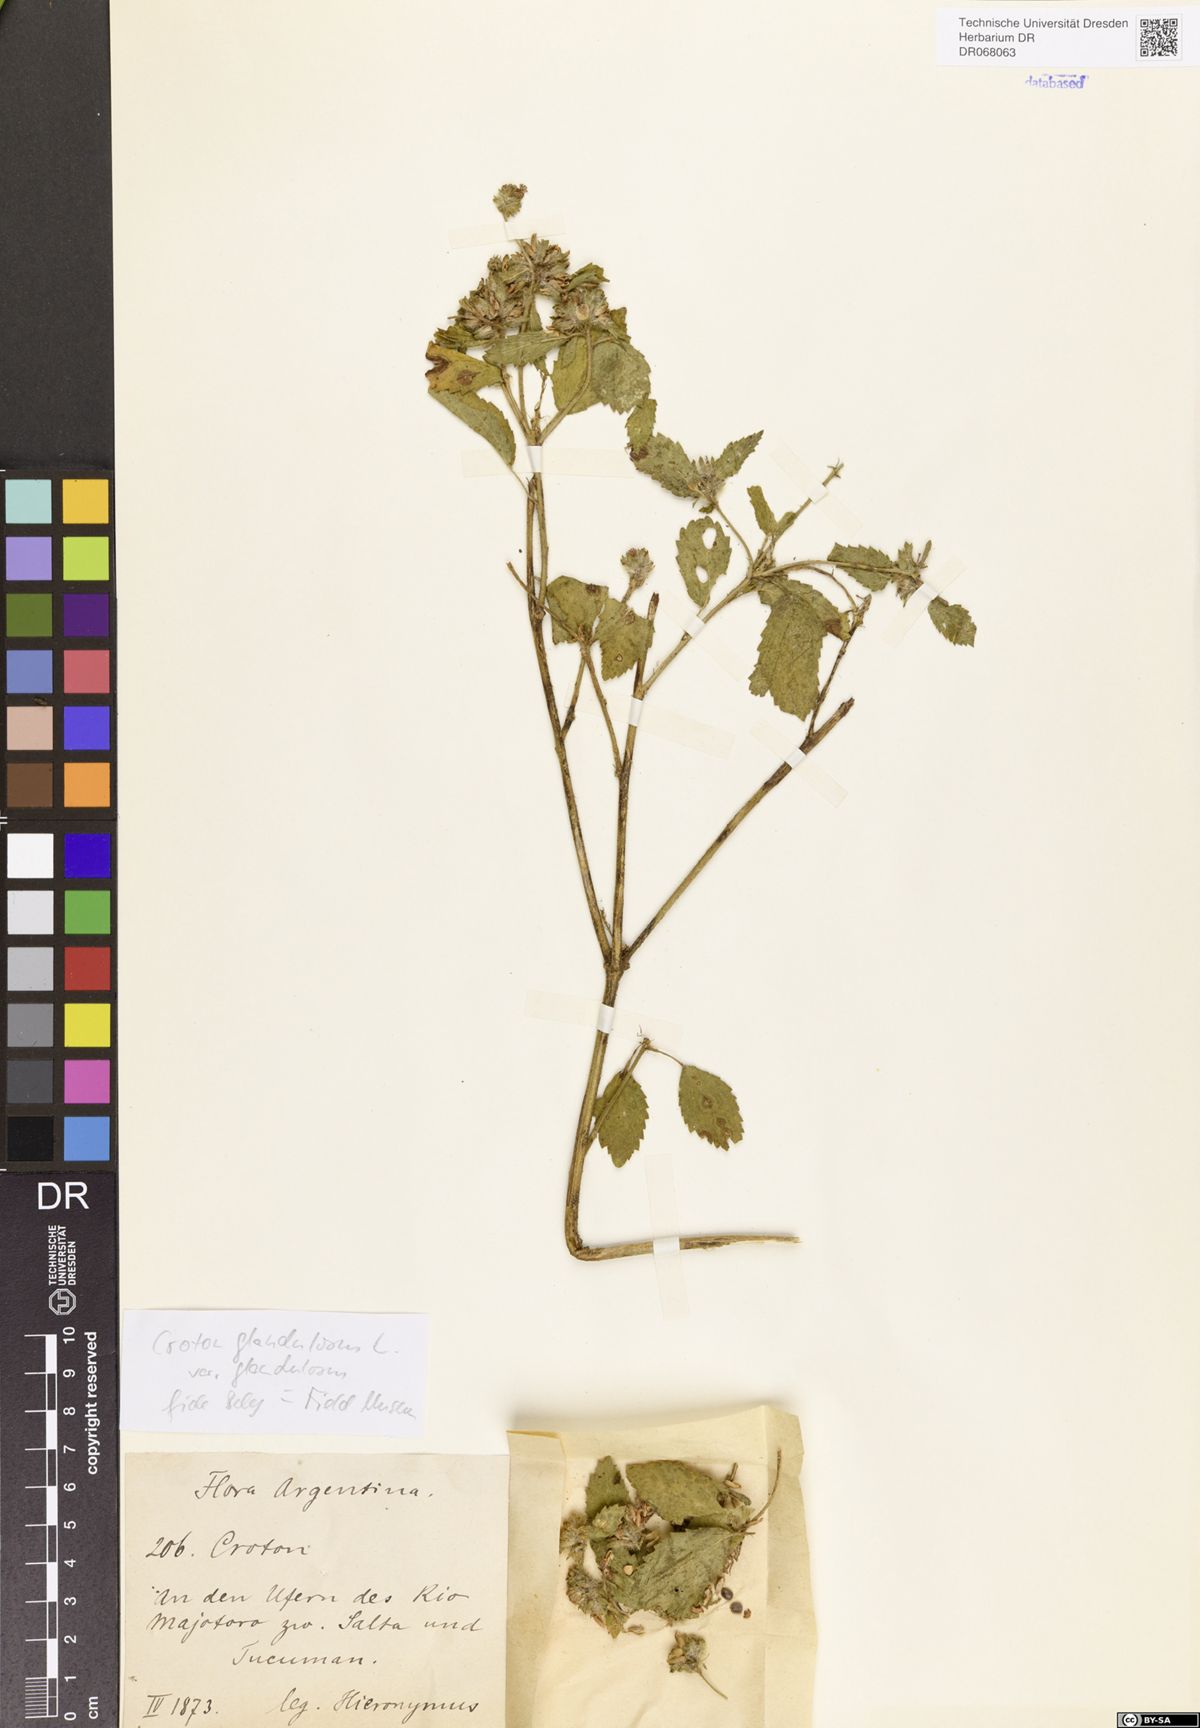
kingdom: Plantae
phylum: Tracheophyta
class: Magnoliopsida
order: Malpighiales
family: Euphorbiaceae
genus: Croton
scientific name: Croton glandulosus
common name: Tropic croton
